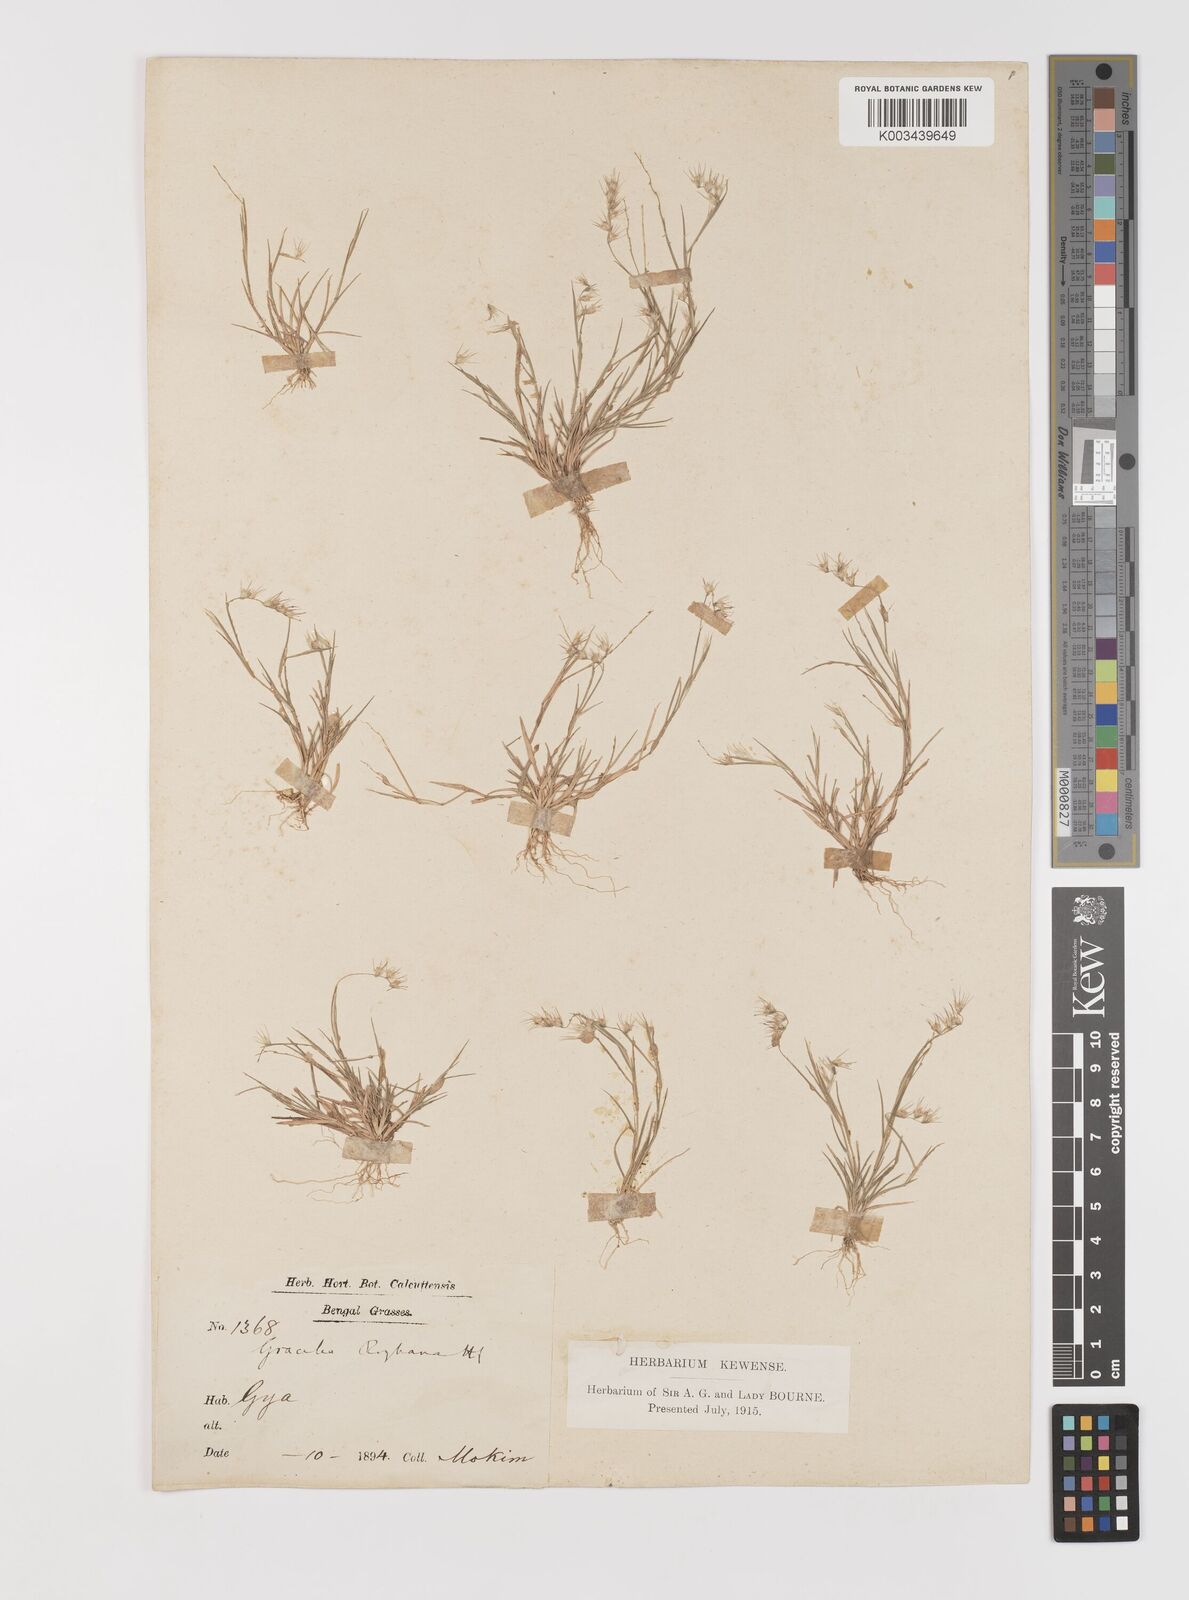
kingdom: Plantae
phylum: Tracheophyta
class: Liliopsida
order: Poales
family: Poaceae
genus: Melanocenchris
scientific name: Melanocenchris jacquemontii
